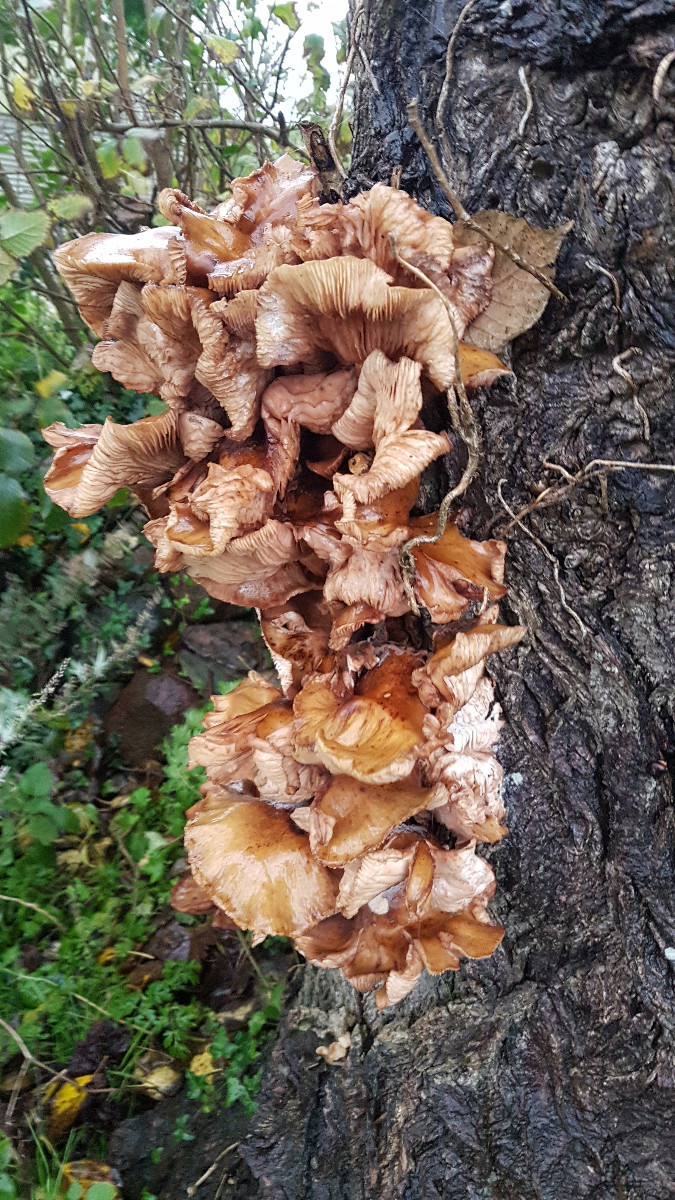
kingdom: Fungi
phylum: Basidiomycota
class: Agaricomycetes
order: Agaricales
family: Physalacriaceae
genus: Flammulina
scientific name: Flammulina
